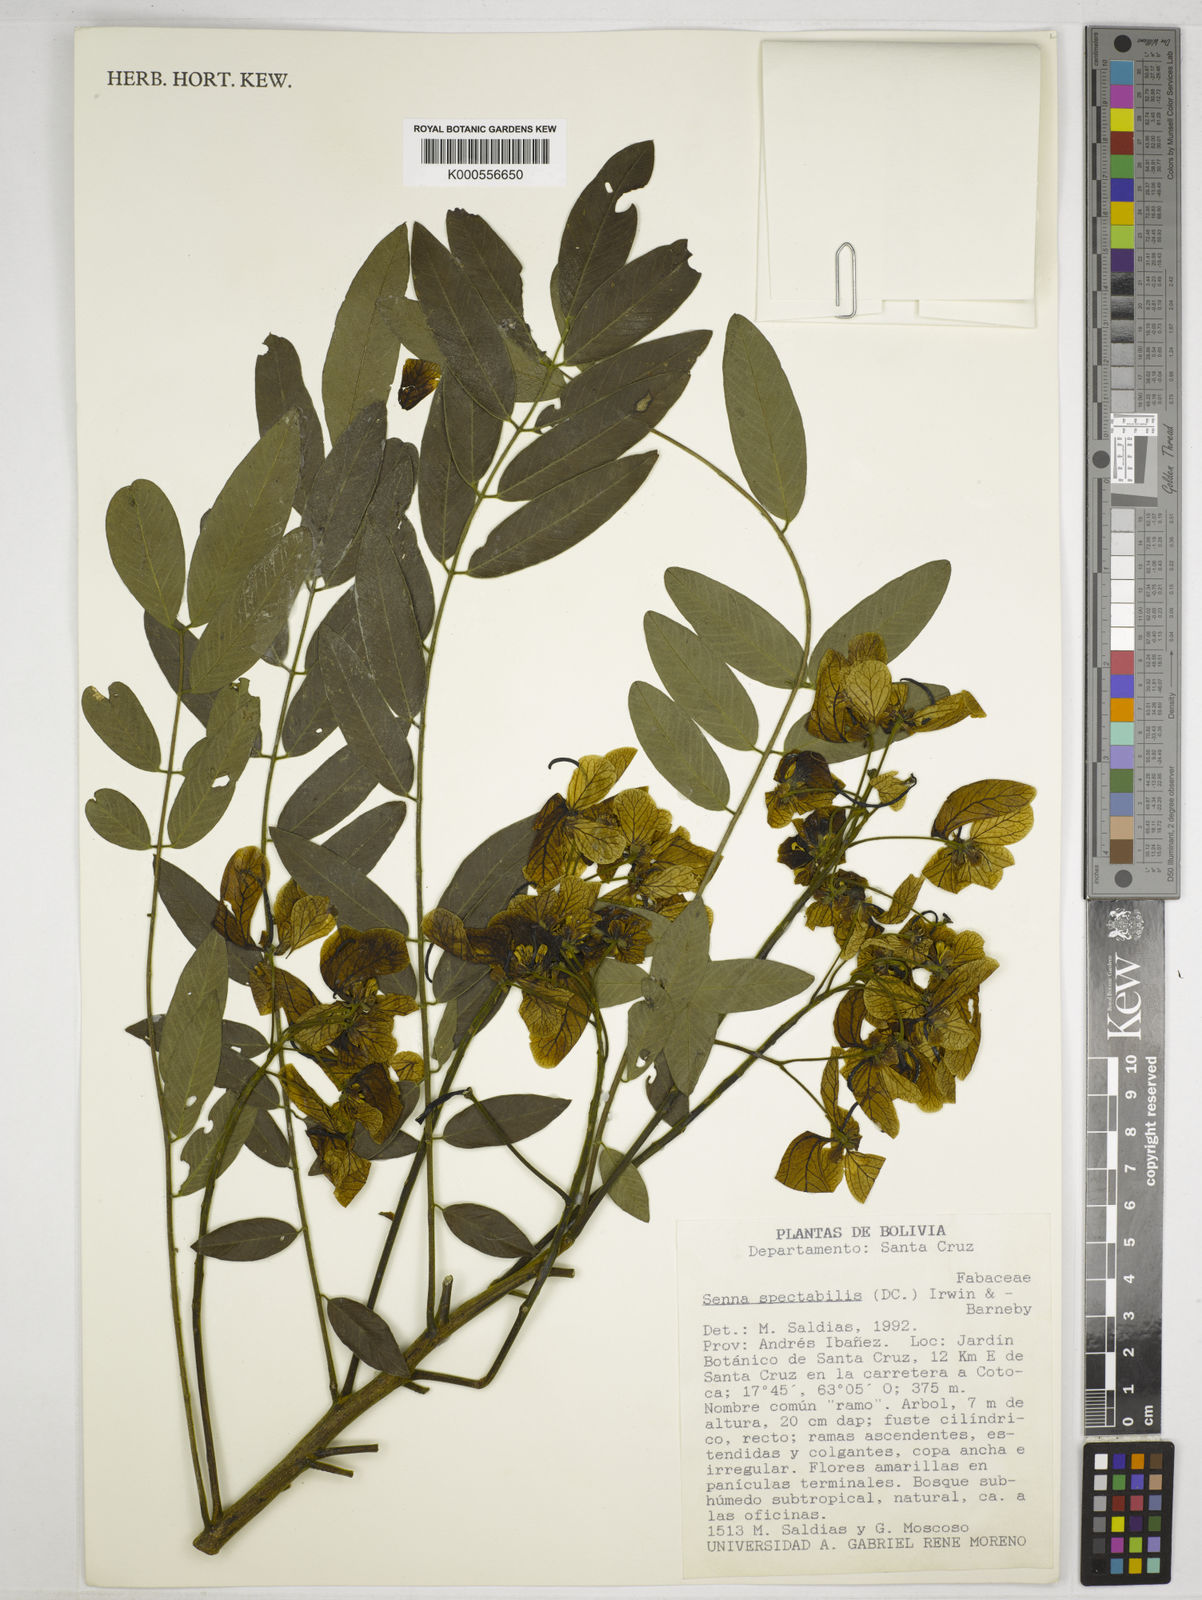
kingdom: Plantae
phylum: Tracheophyta
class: Magnoliopsida
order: Fabales
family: Fabaceae
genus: Senna
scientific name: Senna spectabilis
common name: Casia amarilla
